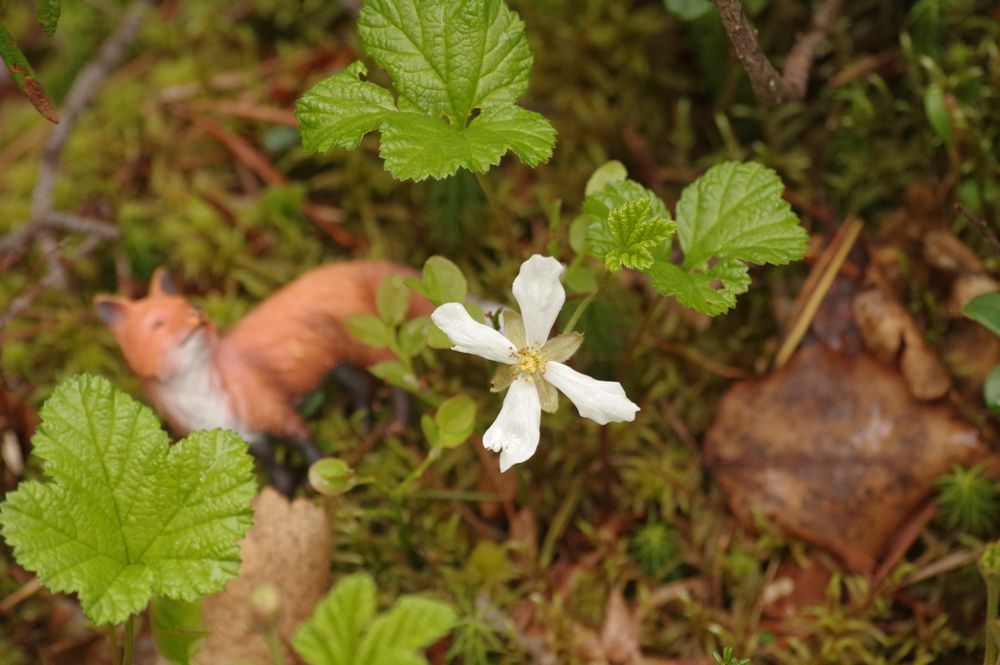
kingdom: Plantae
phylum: Tracheophyta
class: Magnoliopsida
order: Rosales
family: Rosaceae
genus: Rubus
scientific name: Rubus chamaemorus
